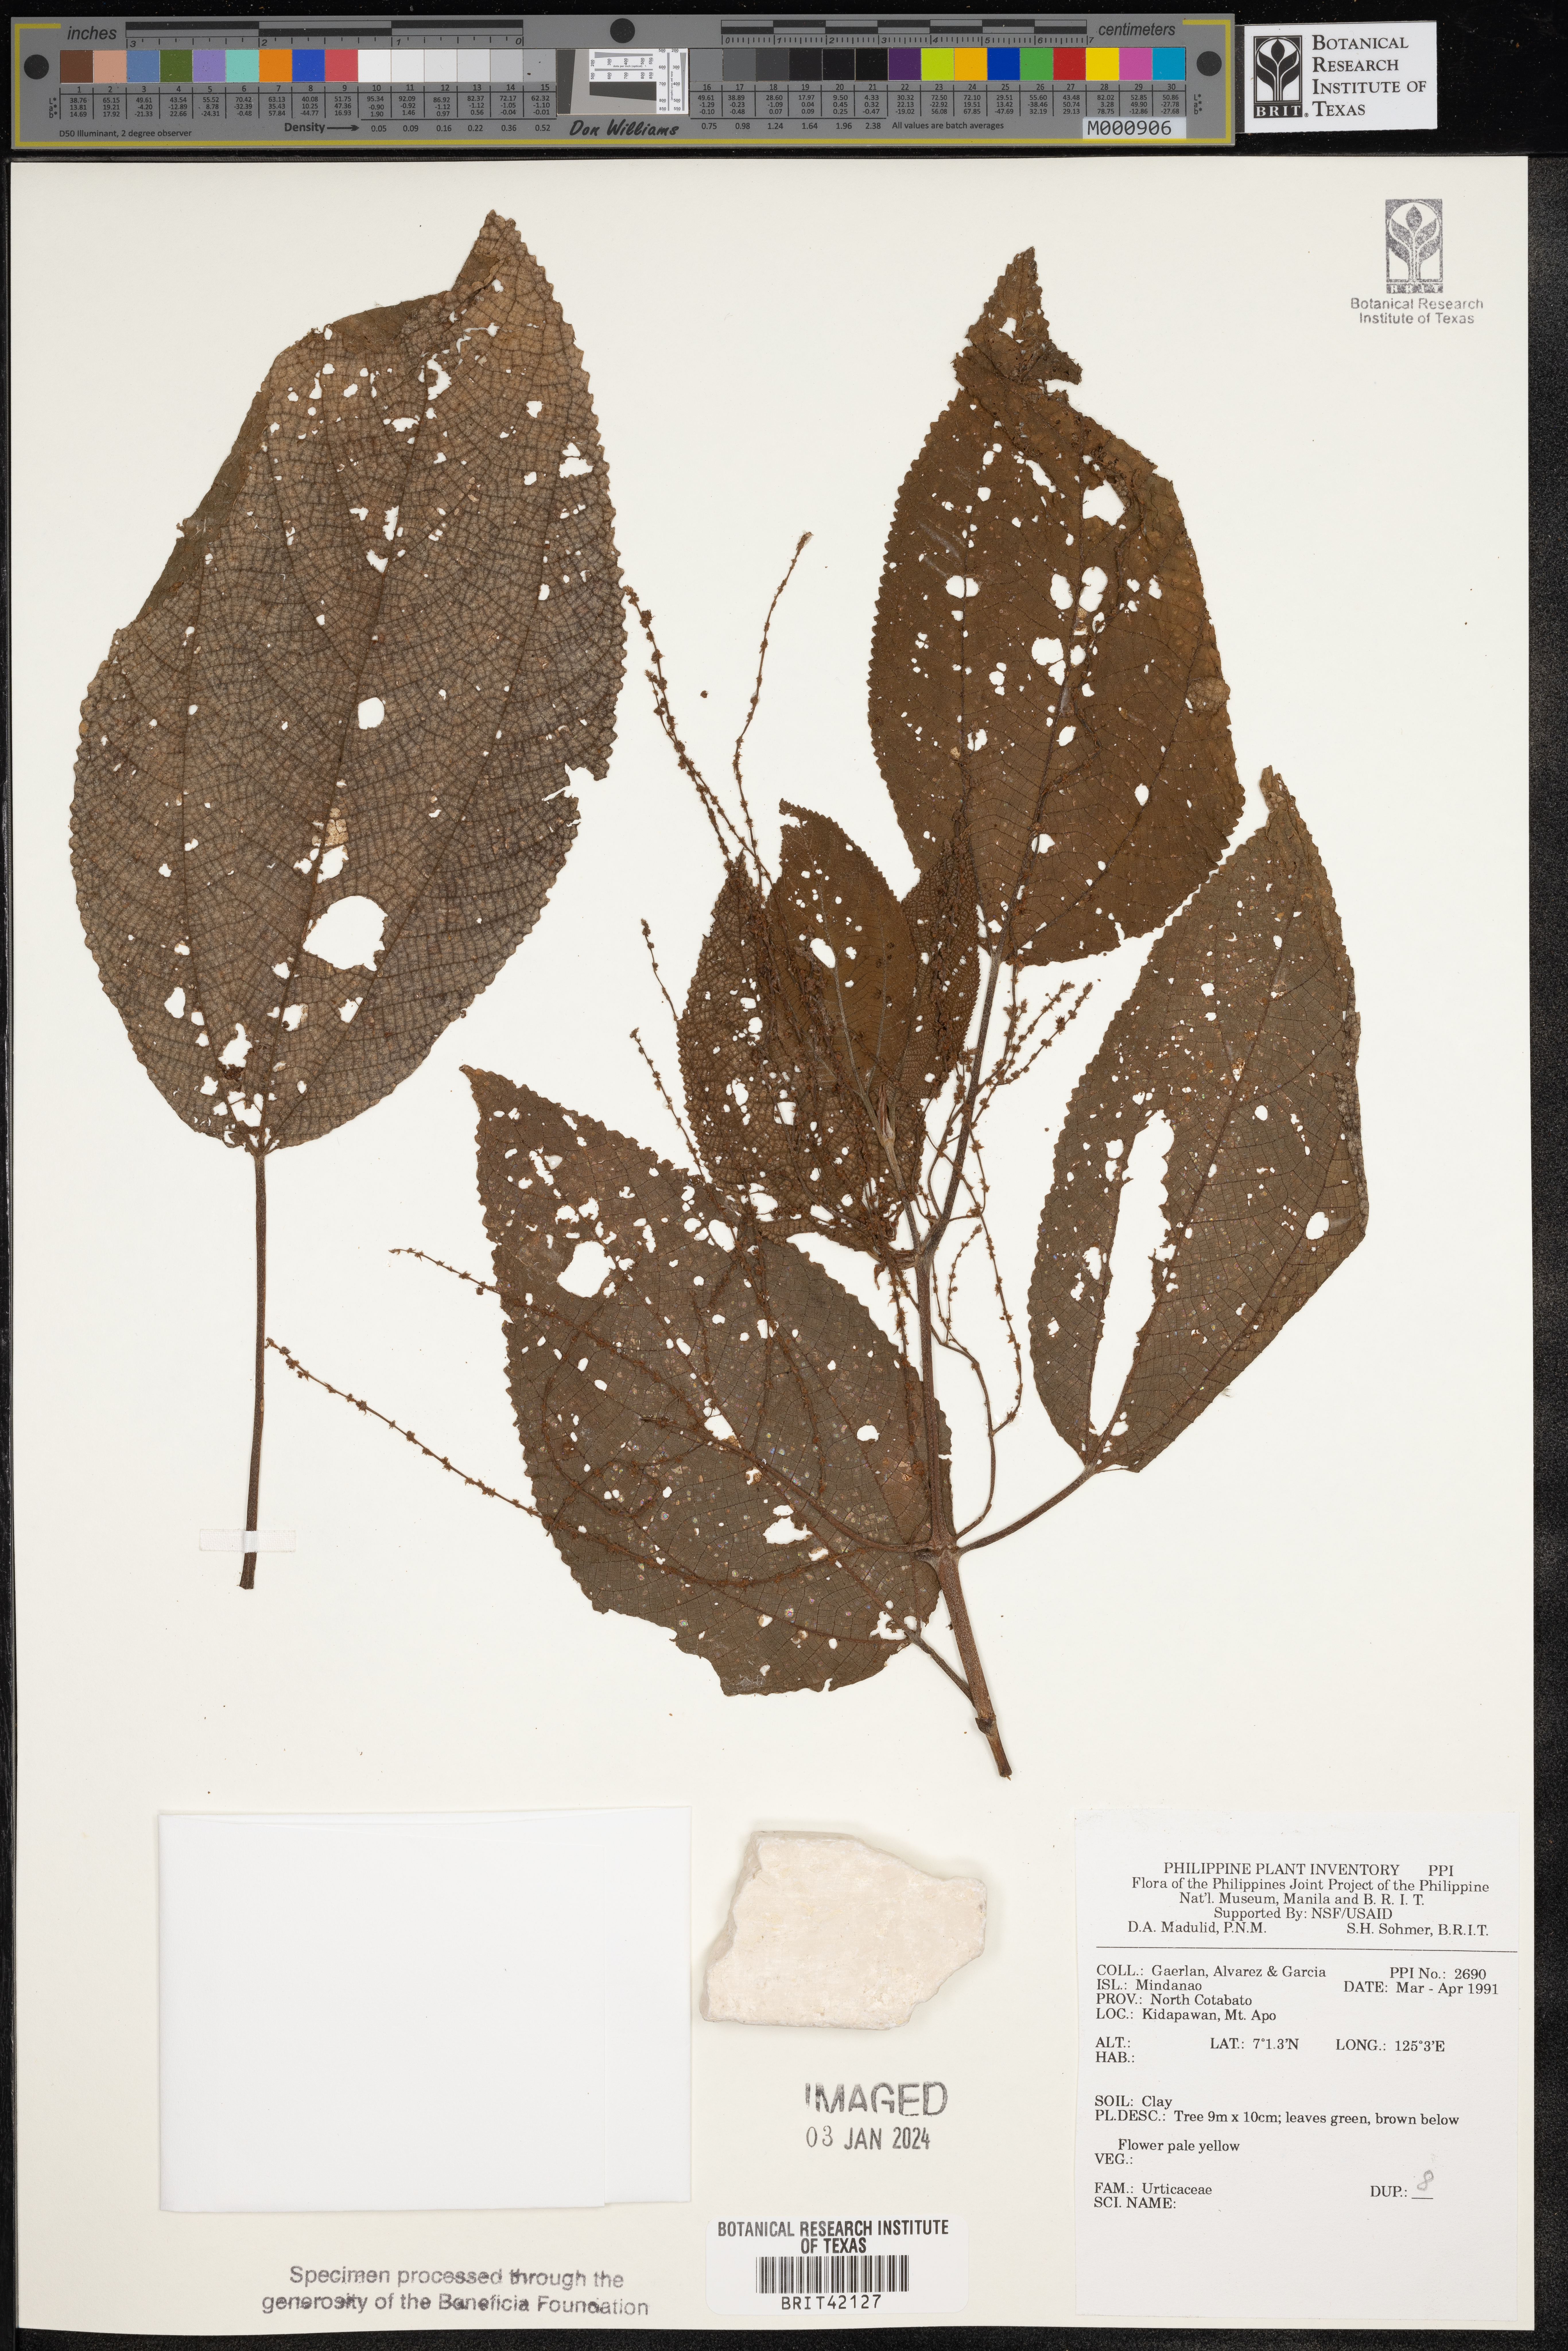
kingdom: Plantae
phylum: Tracheophyta
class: Magnoliopsida
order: Rosales
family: Urticaceae
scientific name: Urticaceae
